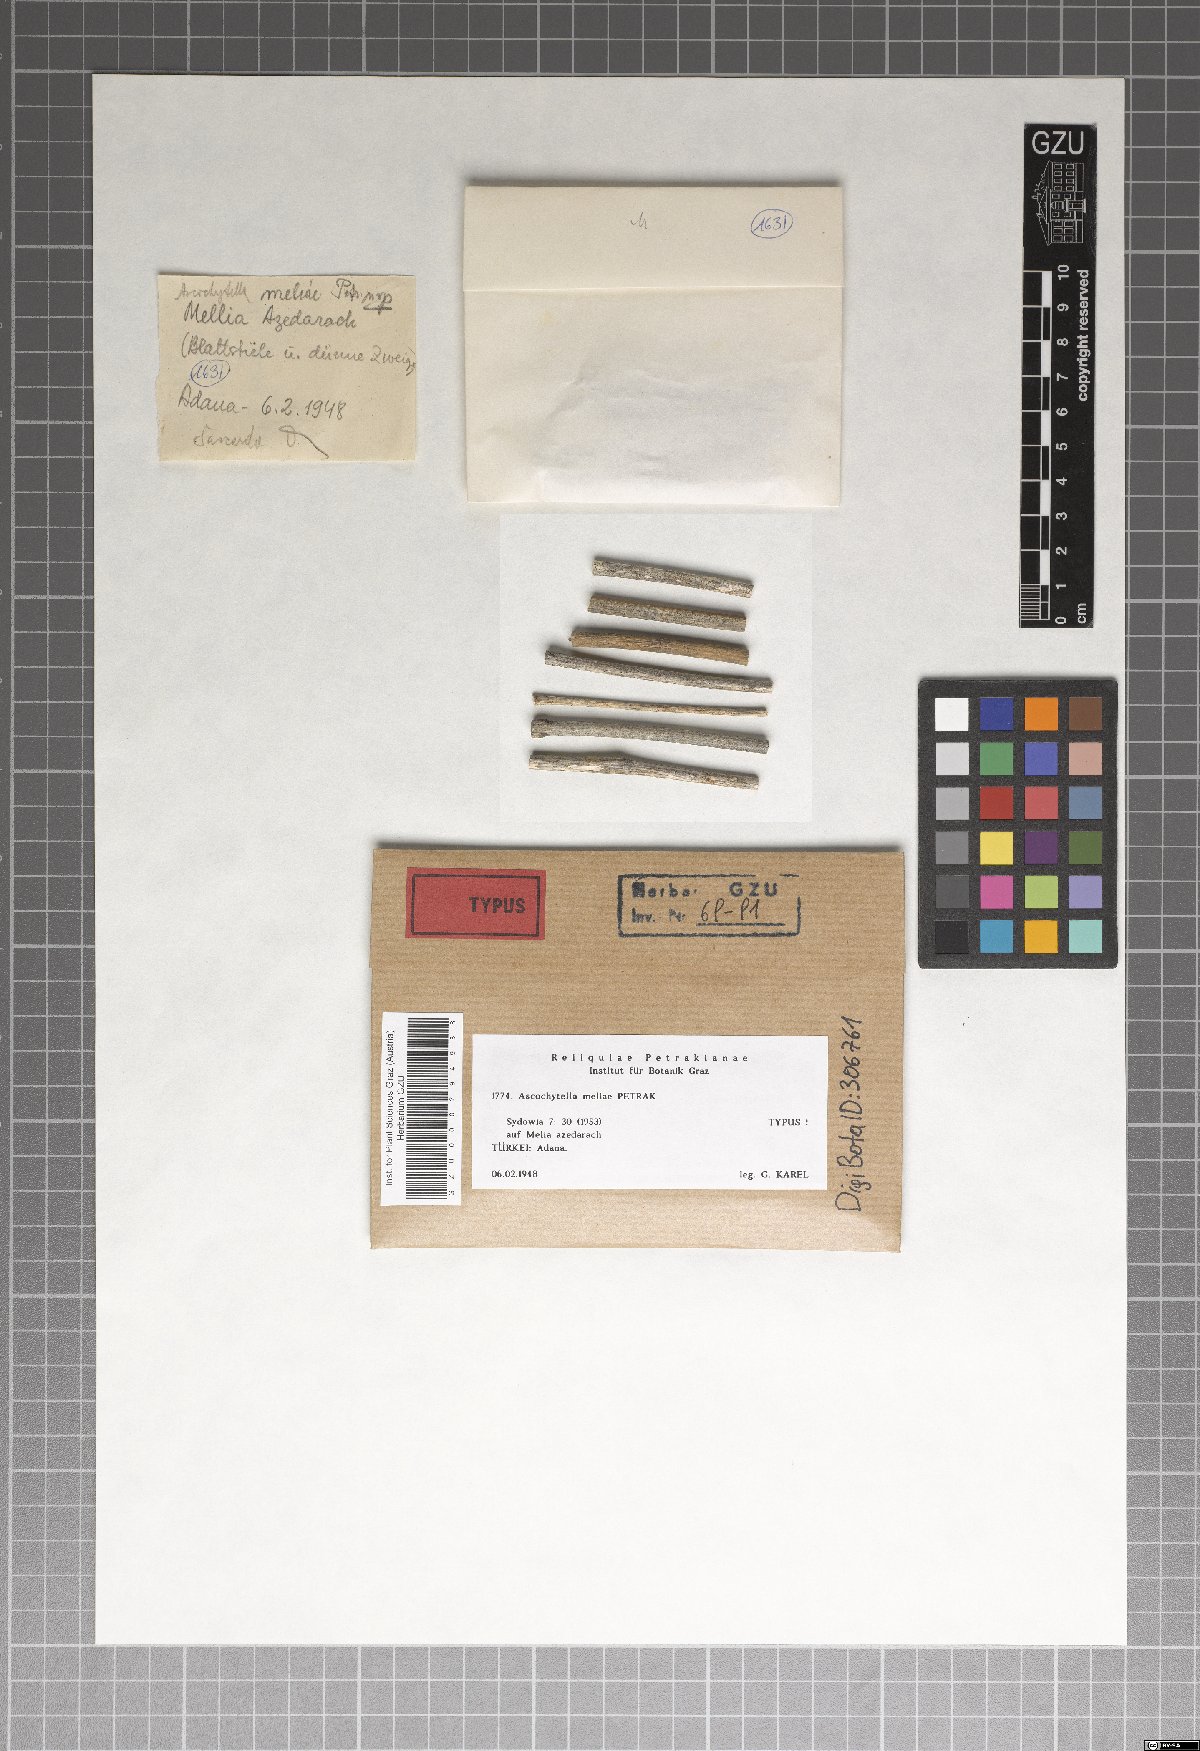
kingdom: Fungi
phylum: Ascomycota
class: Dothideomycetes
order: Pleosporales
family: Didymellaceae
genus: Ascochytella
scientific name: Ascochytella meliae
